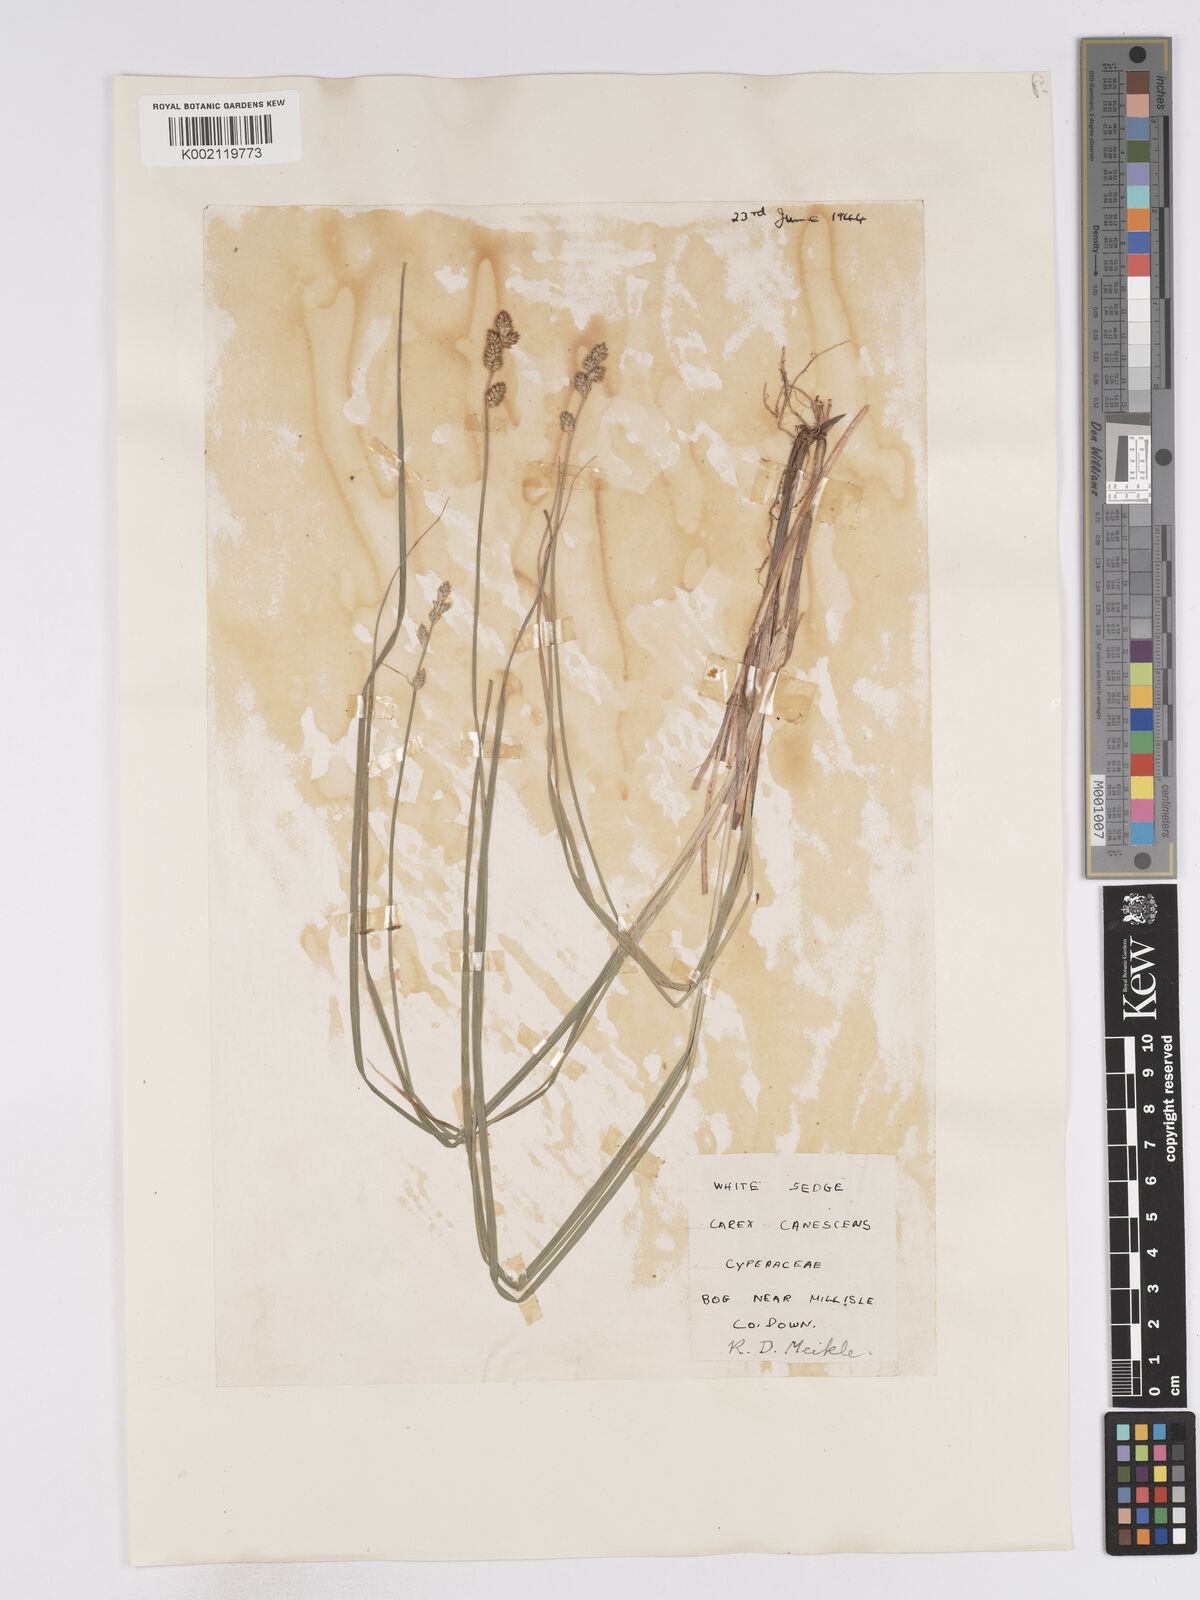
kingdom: Plantae
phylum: Tracheophyta
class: Liliopsida
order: Poales
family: Cyperaceae
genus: Carex
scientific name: Carex curta
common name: White sedge
